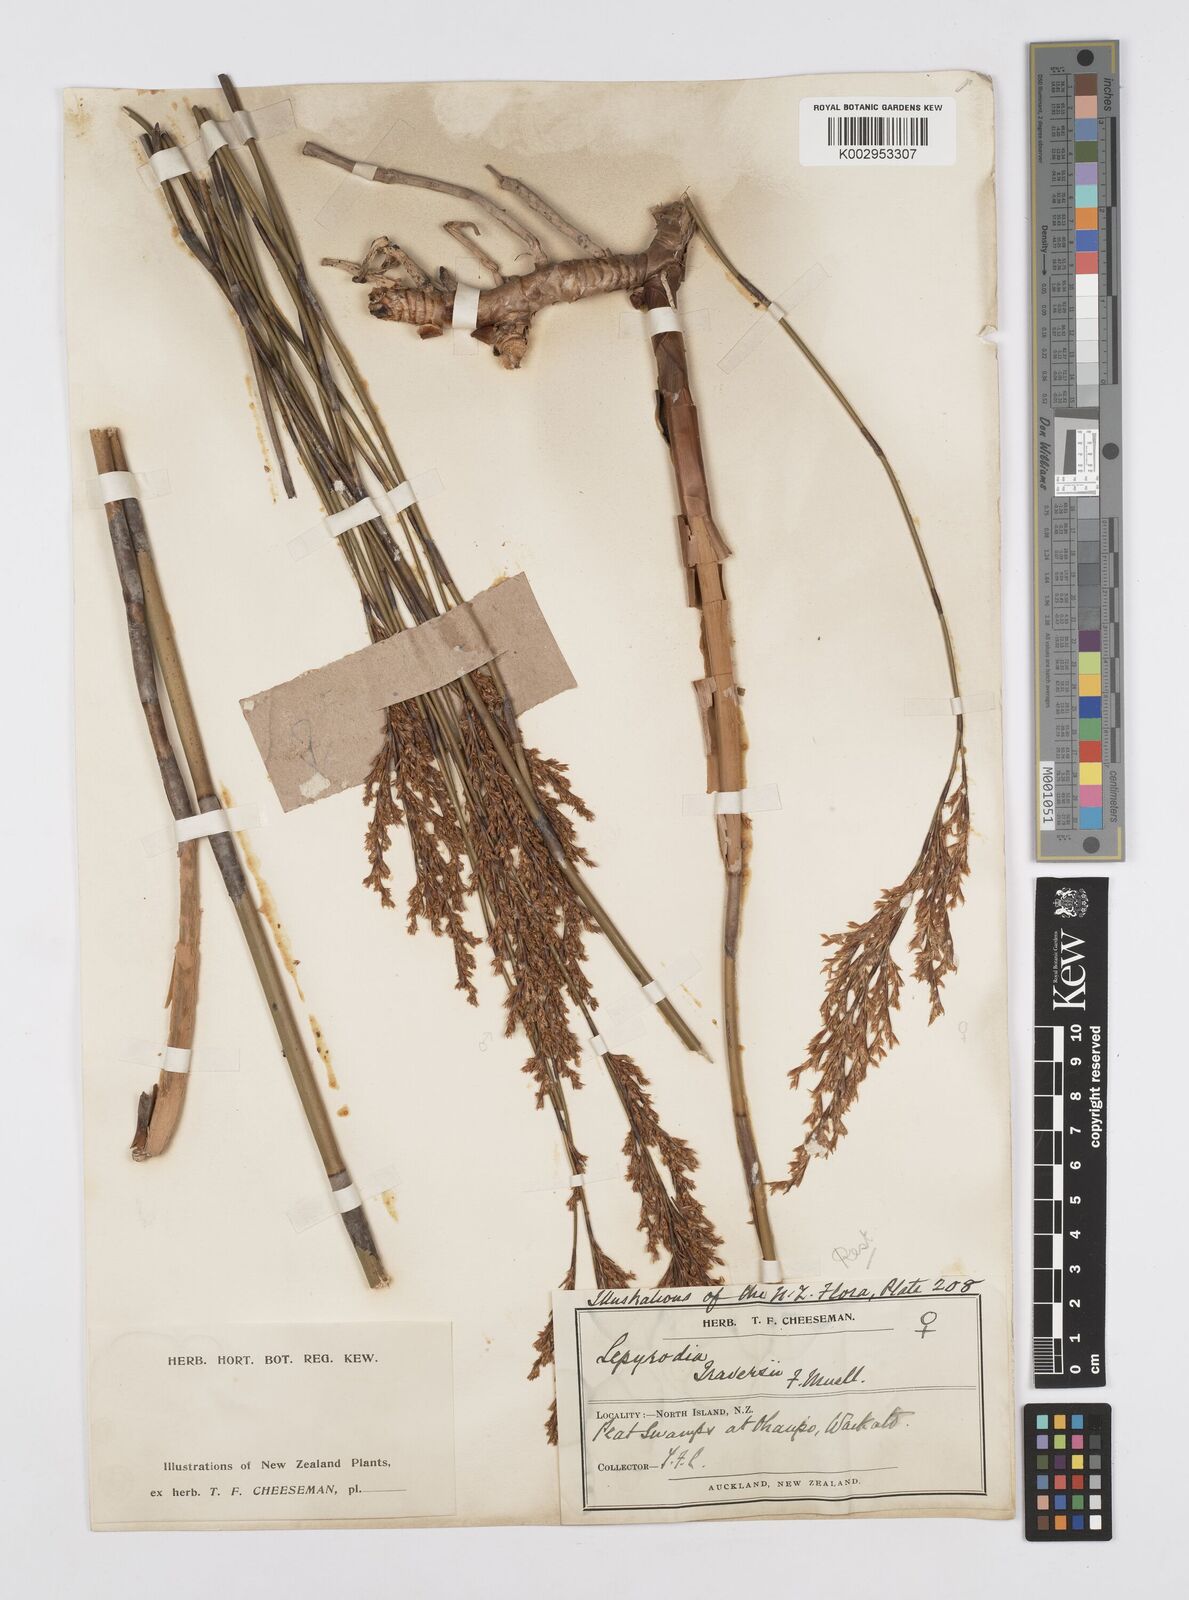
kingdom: Plantae
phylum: Tracheophyta
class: Liliopsida
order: Poales
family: Restionaceae
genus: Sporadanthus
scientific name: Sporadanthus traversii
